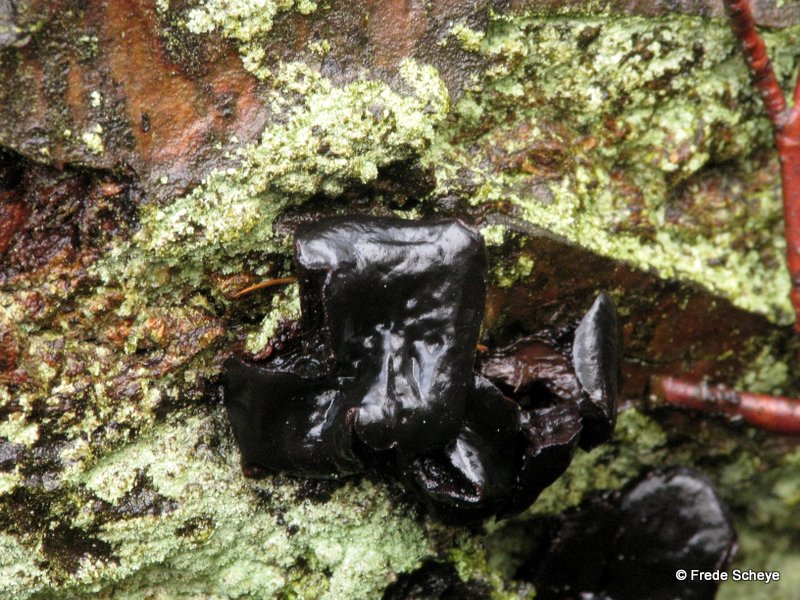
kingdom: Fungi
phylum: Ascomycota
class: Leotiomycetes
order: Phacidiales
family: Phacidiaceae
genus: Bulgaria
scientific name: Bulgaria inquinans
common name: afsmittende topsvamp
